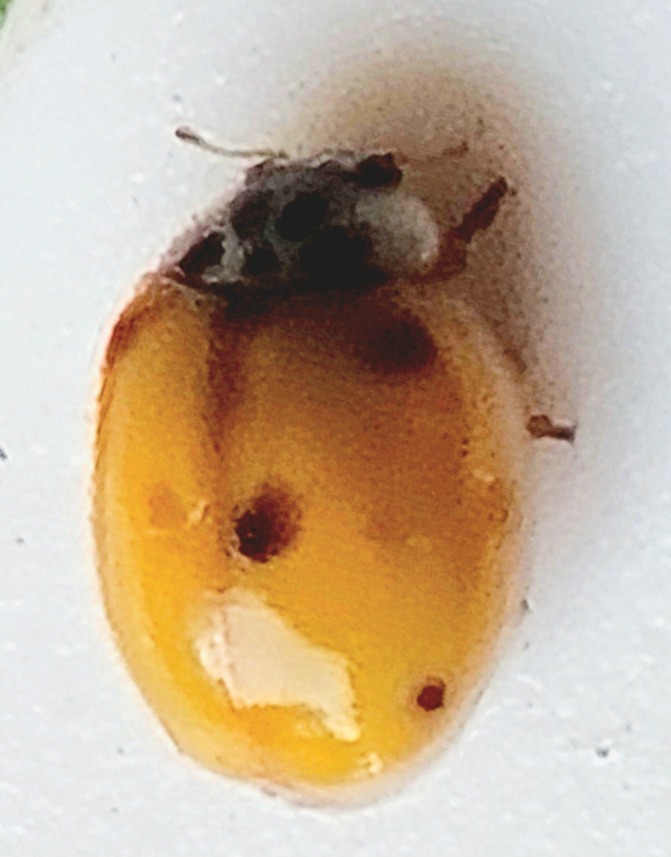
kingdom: Animalia
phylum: Arthropoda
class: Insecta
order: Coleoptera
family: Coccinellidae
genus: Adalia
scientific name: Adalia decempunctata
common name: Tiplettet mariehøne
